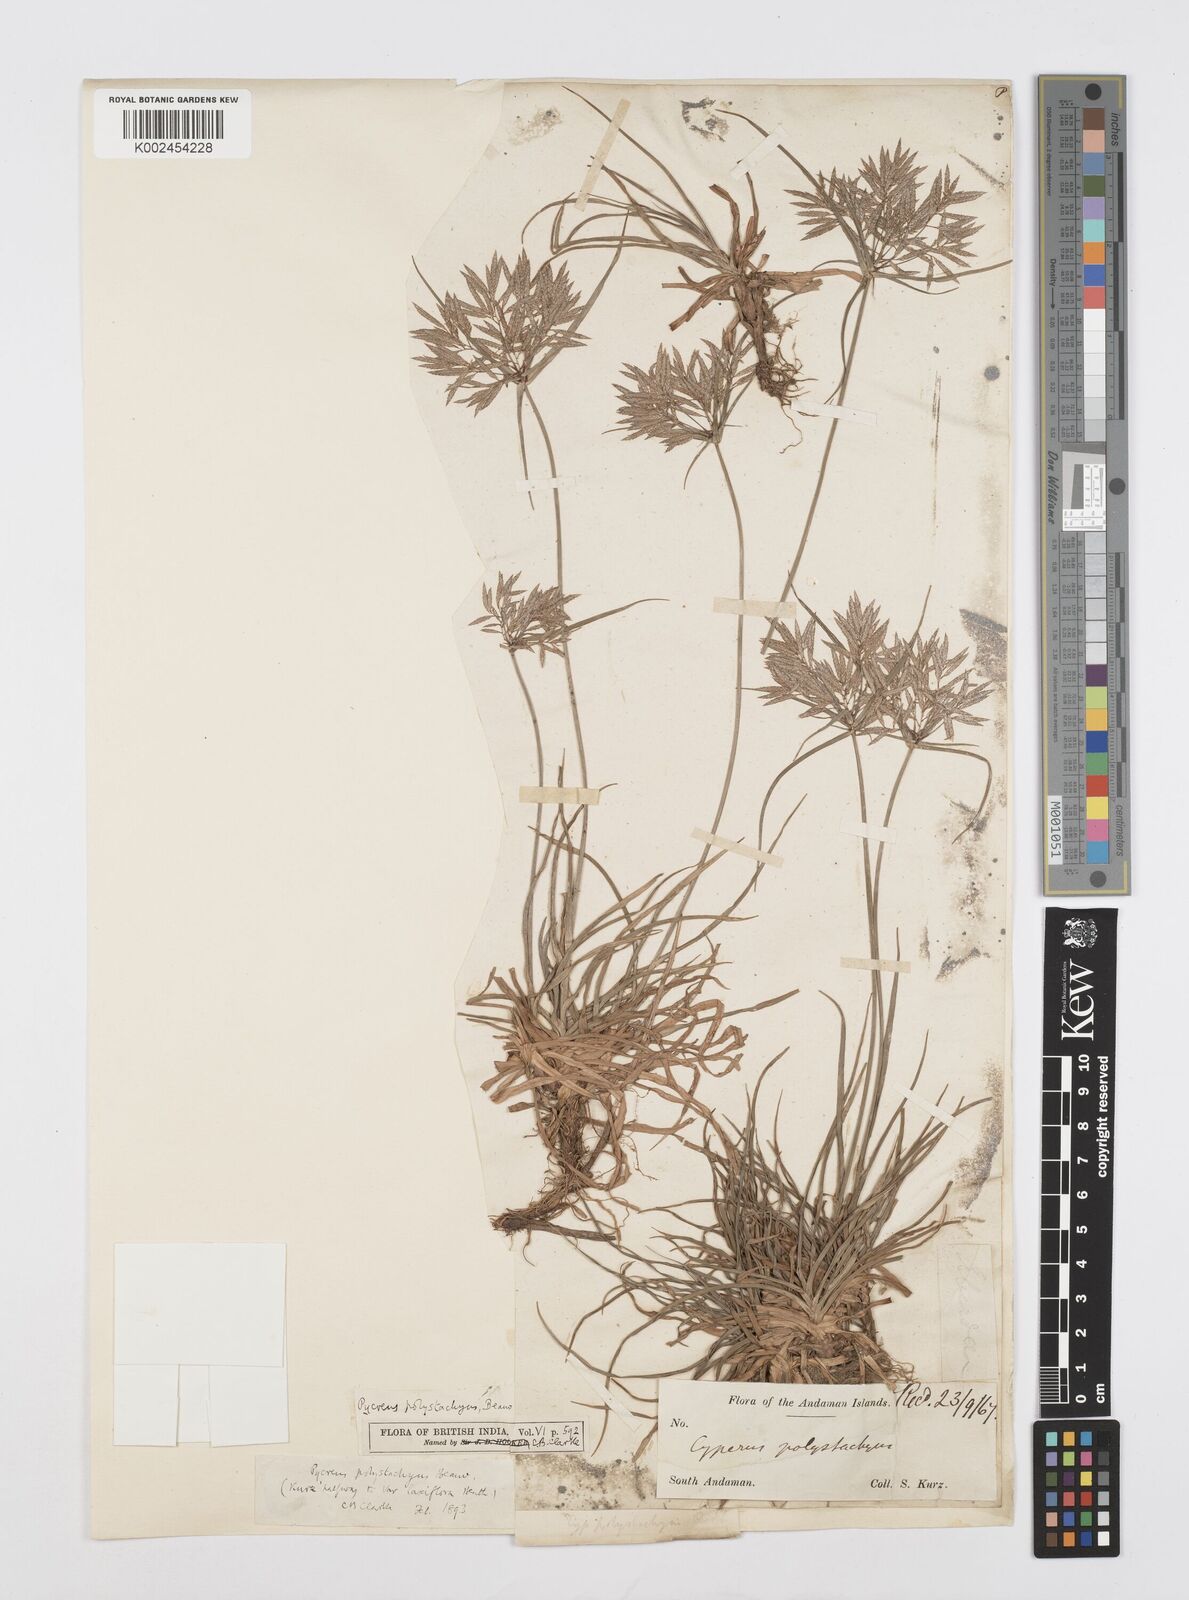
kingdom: Plantae
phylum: Tracheophyta
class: Liliopsida
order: Poales
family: Cyperaceae
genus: Cyperus
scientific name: Cyperus polystachyos
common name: Bunchy flat sedge
